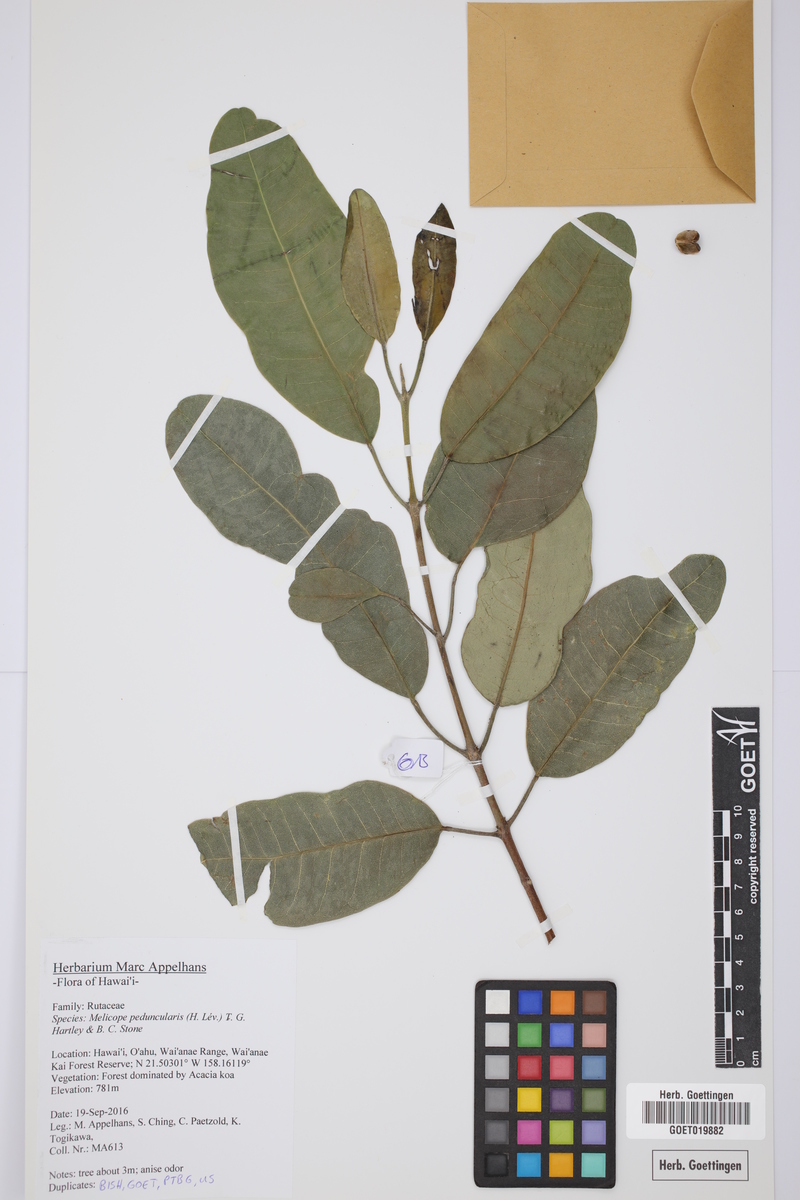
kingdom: Plantae
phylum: Tracheophyta
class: Magnoliopsida
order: Sapindales
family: Rutaceae
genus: Melicope
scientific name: Melicope peduncularis
